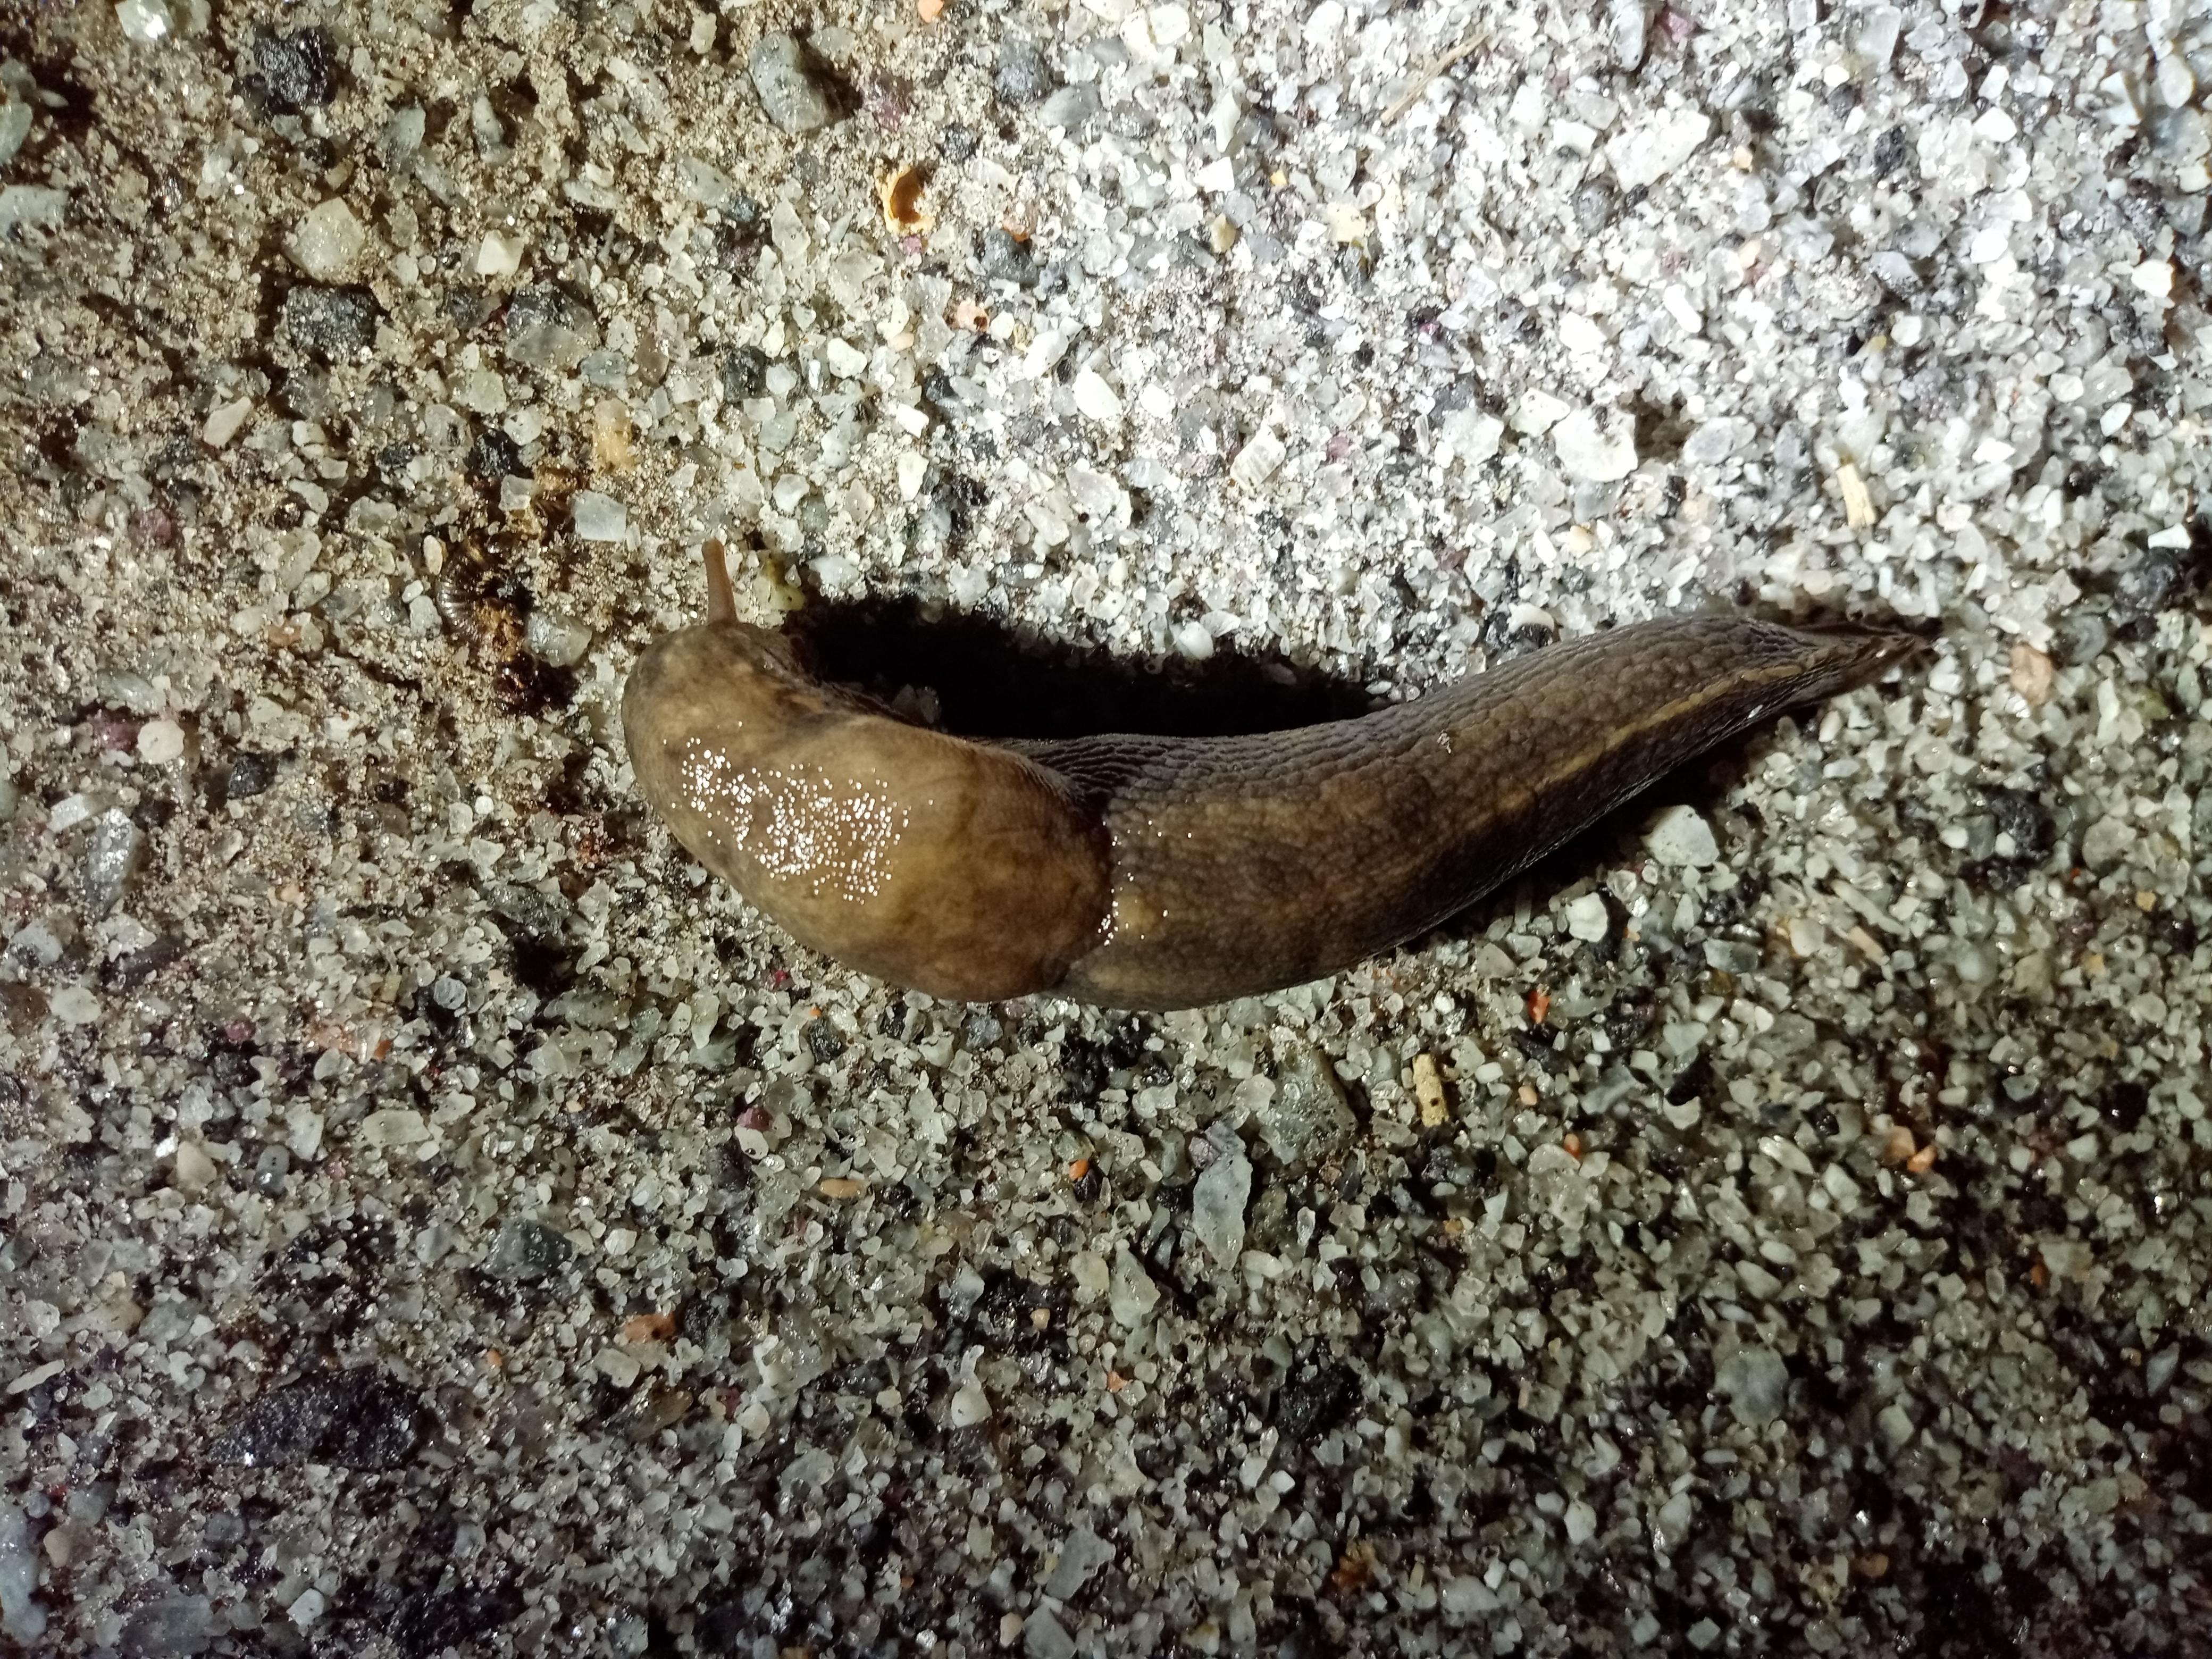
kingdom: Animalia
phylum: Mollusca
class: Gastropoda
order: Stylommatophora
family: Limacidae
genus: Limax
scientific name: Limax maximus
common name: Great grey slug
